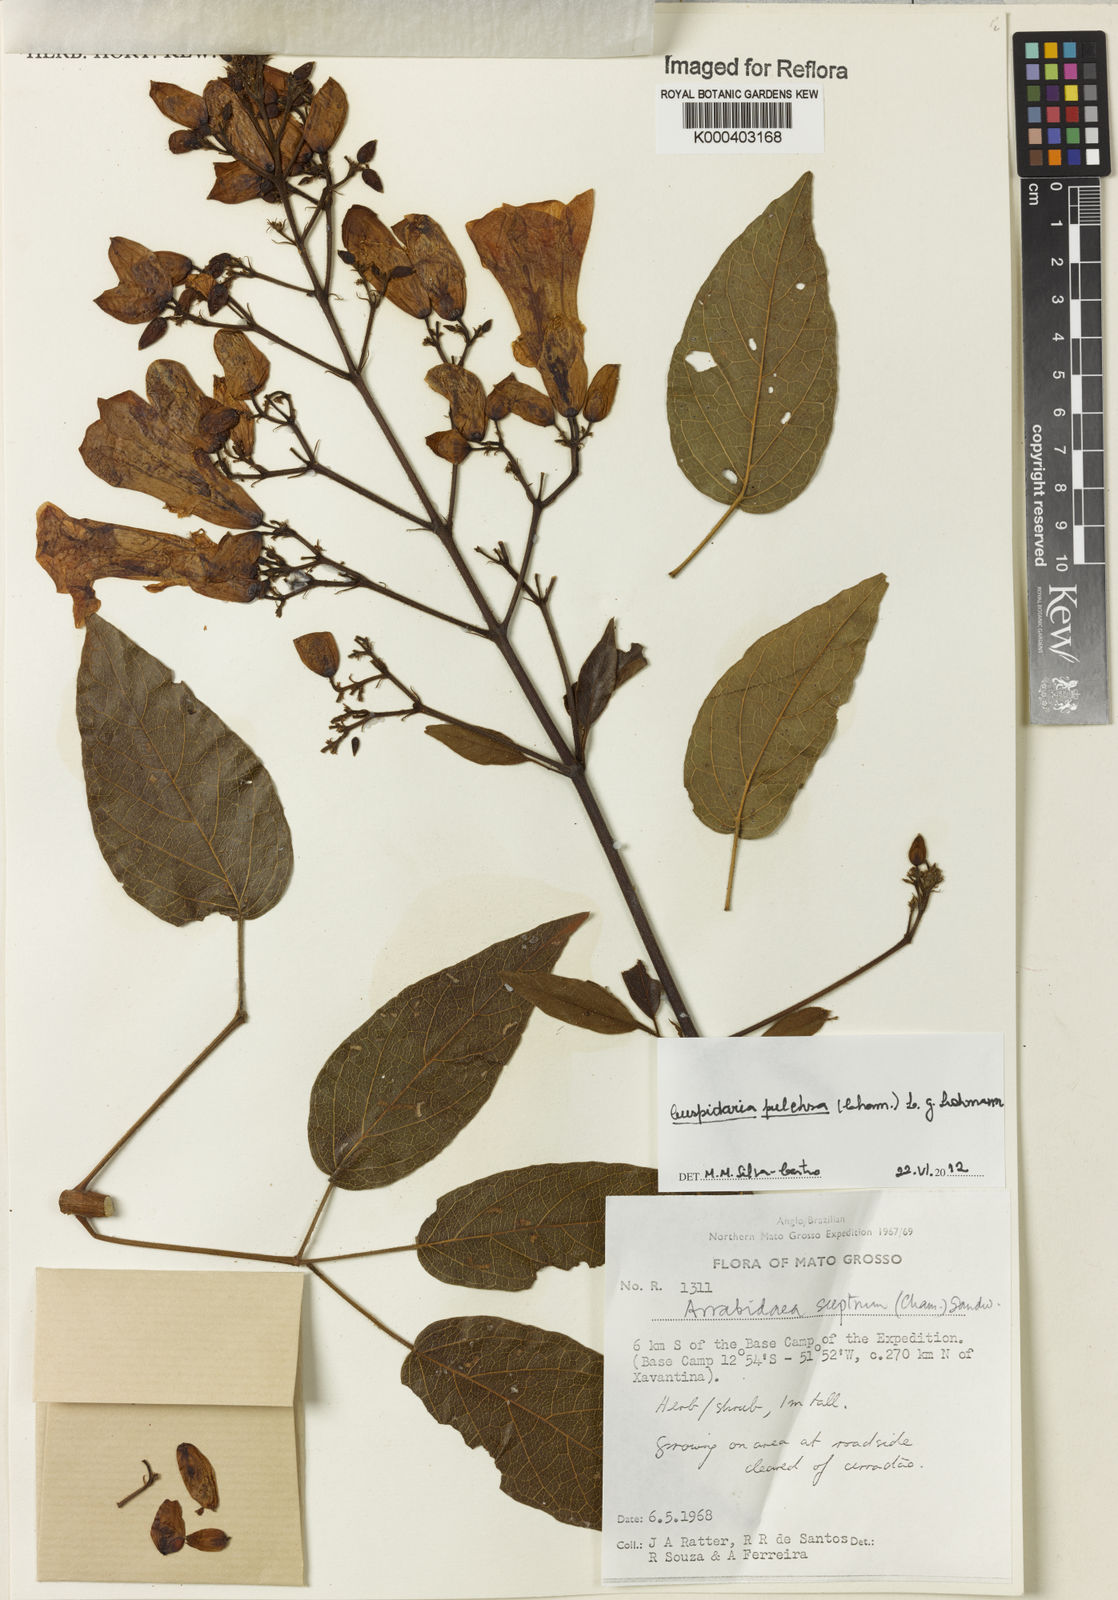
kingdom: Plantae
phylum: Tracheophyta
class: Magnoliopsida
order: Lamiales
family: Bignoniaceae
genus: Cuspidaria
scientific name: Cuspidaria sceptrum
